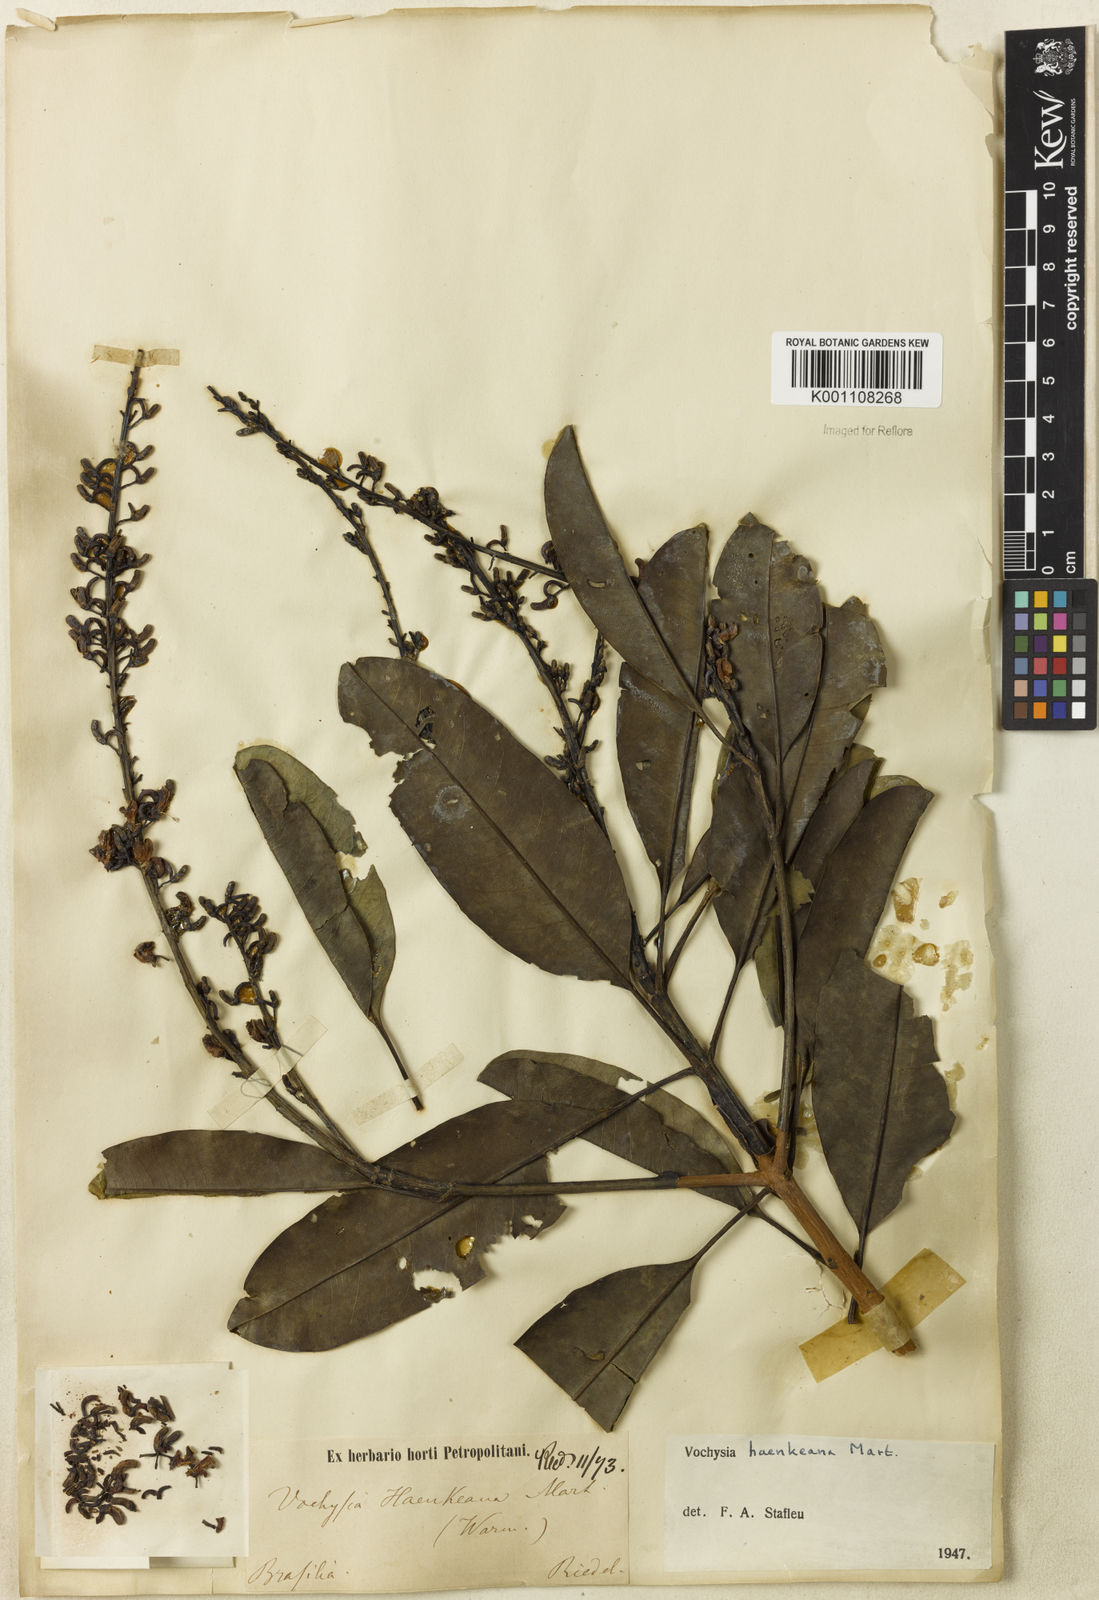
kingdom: Plantae
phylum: Tracheophyta
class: Magnoliopsida
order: Myrtales
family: Vochysiaceae
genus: Vochysia
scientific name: Vochysia haenkeana
